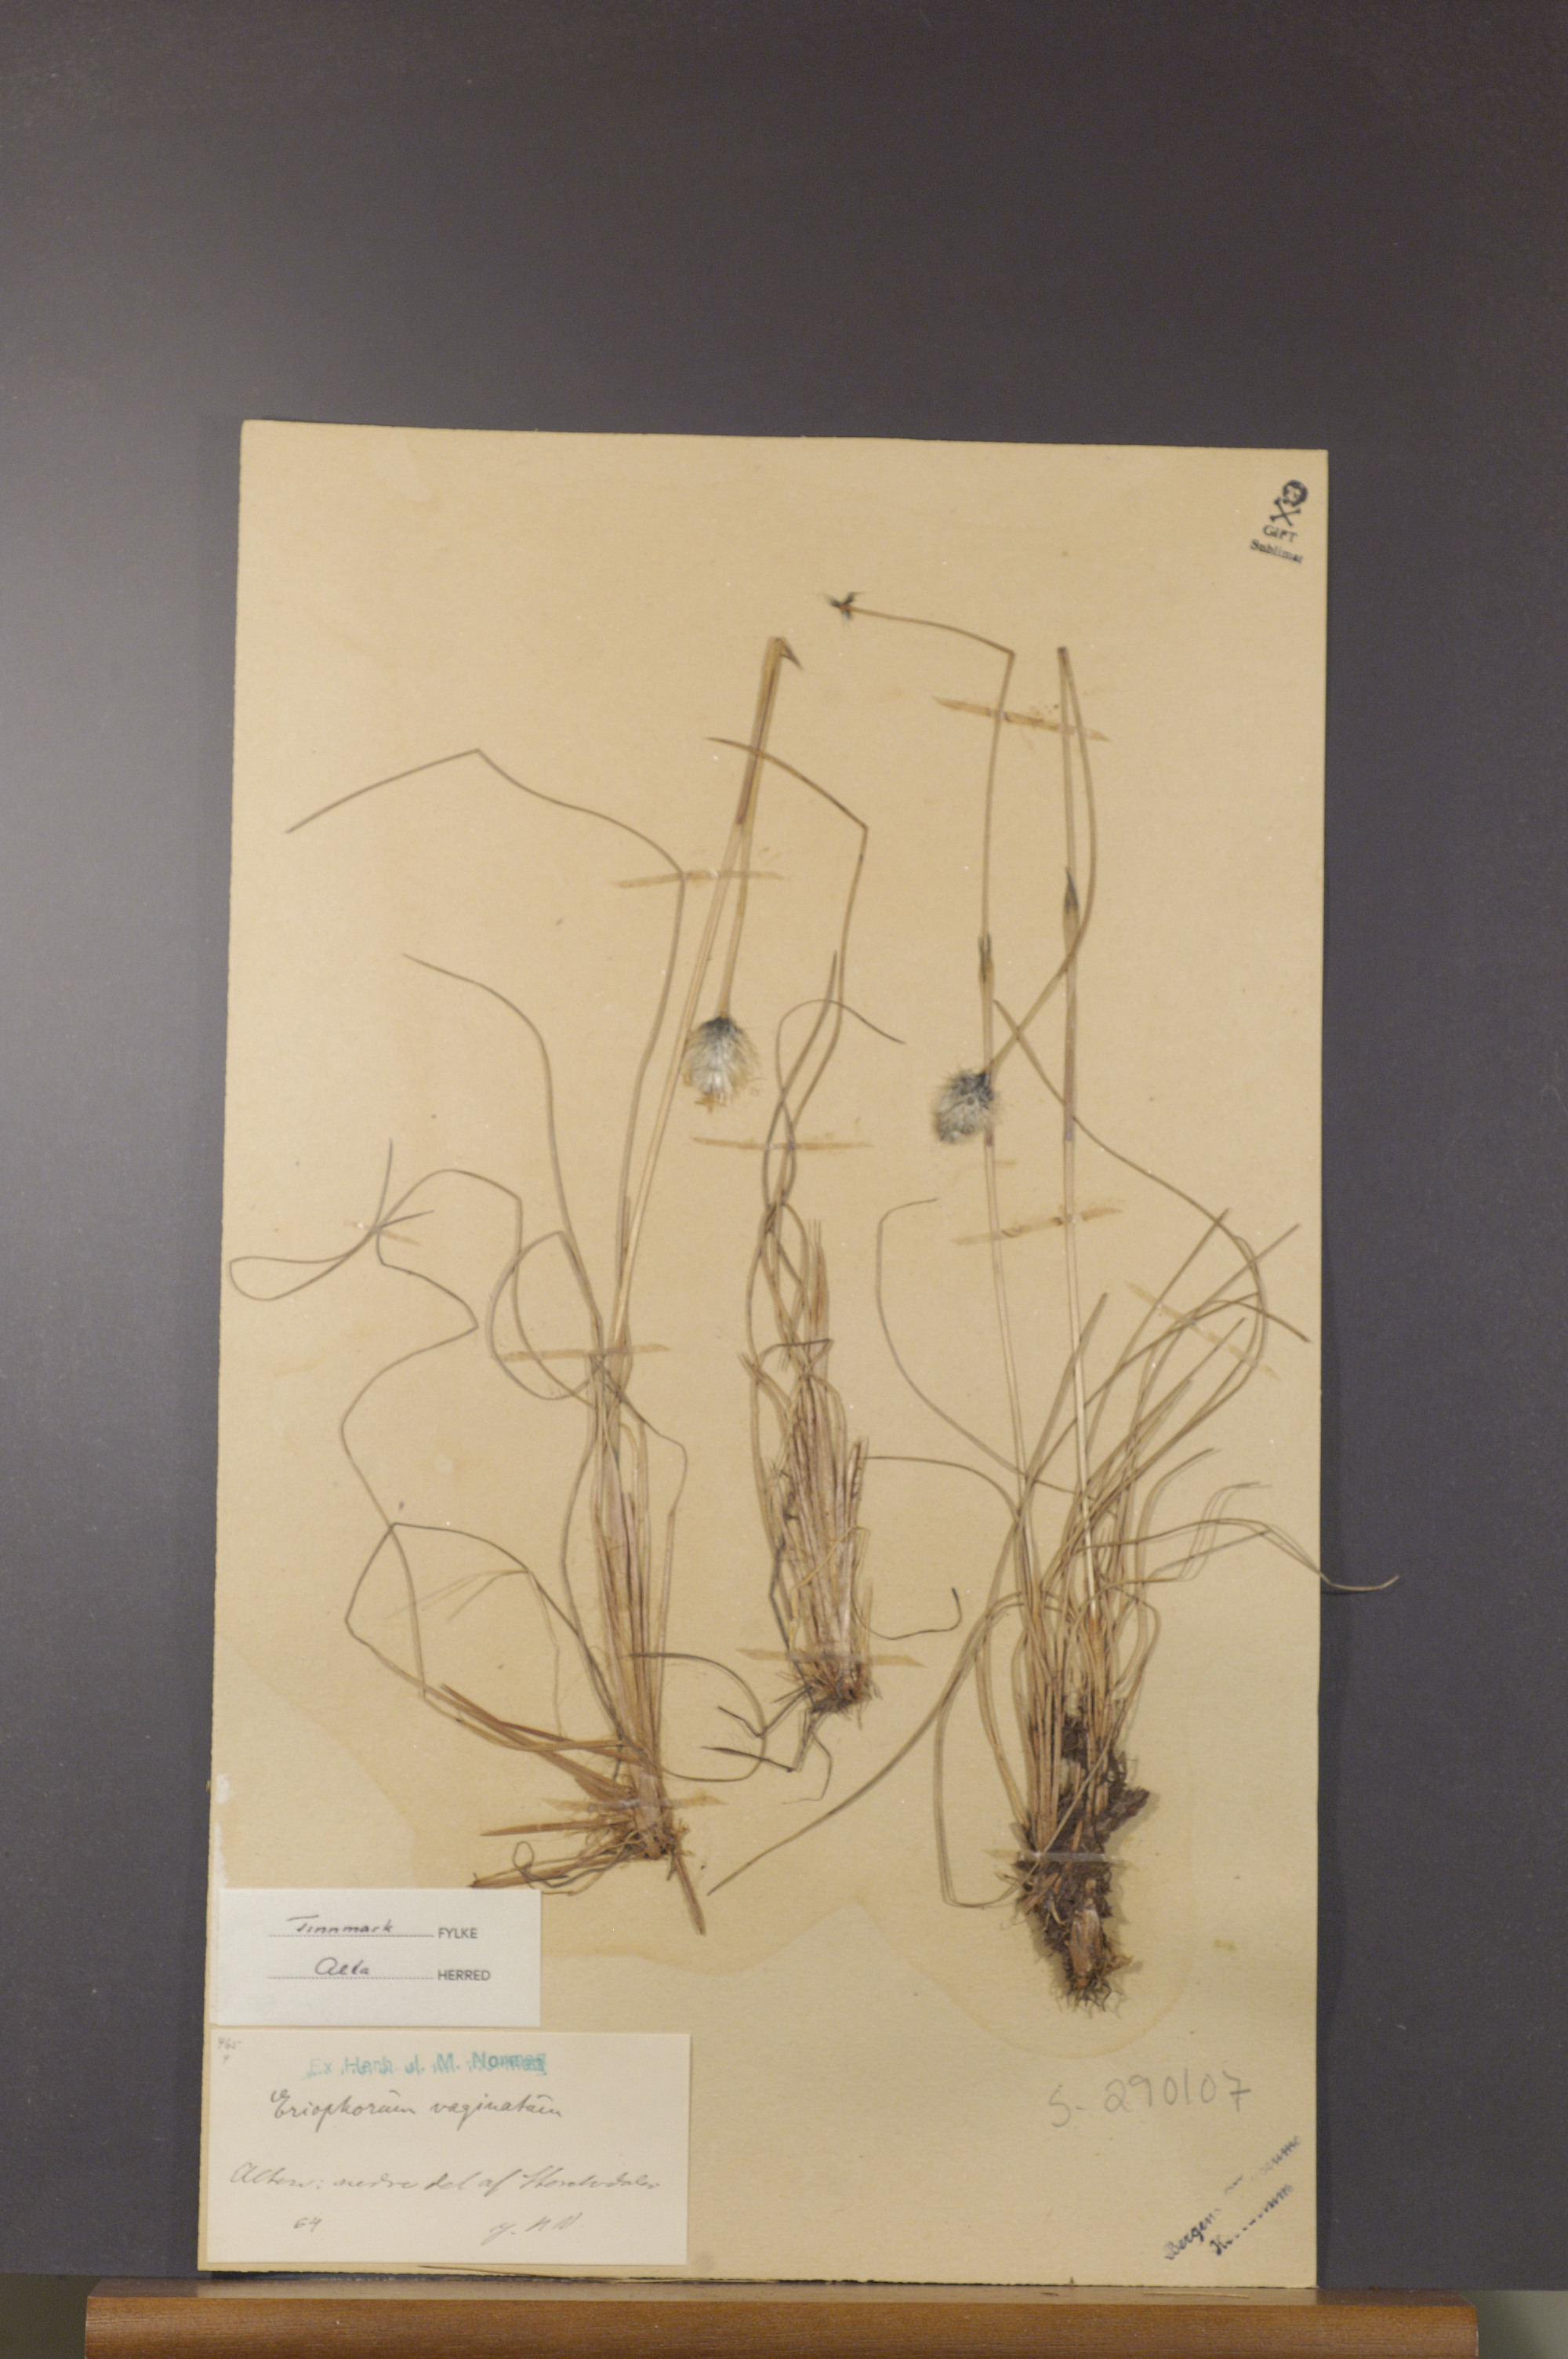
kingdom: Plantae
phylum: Tracheophyta
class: Liliopsida
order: Poales
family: Cyperaceae
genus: Eriophorum
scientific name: Eriophorum vaginatum
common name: Hare's-tail cottongrass
